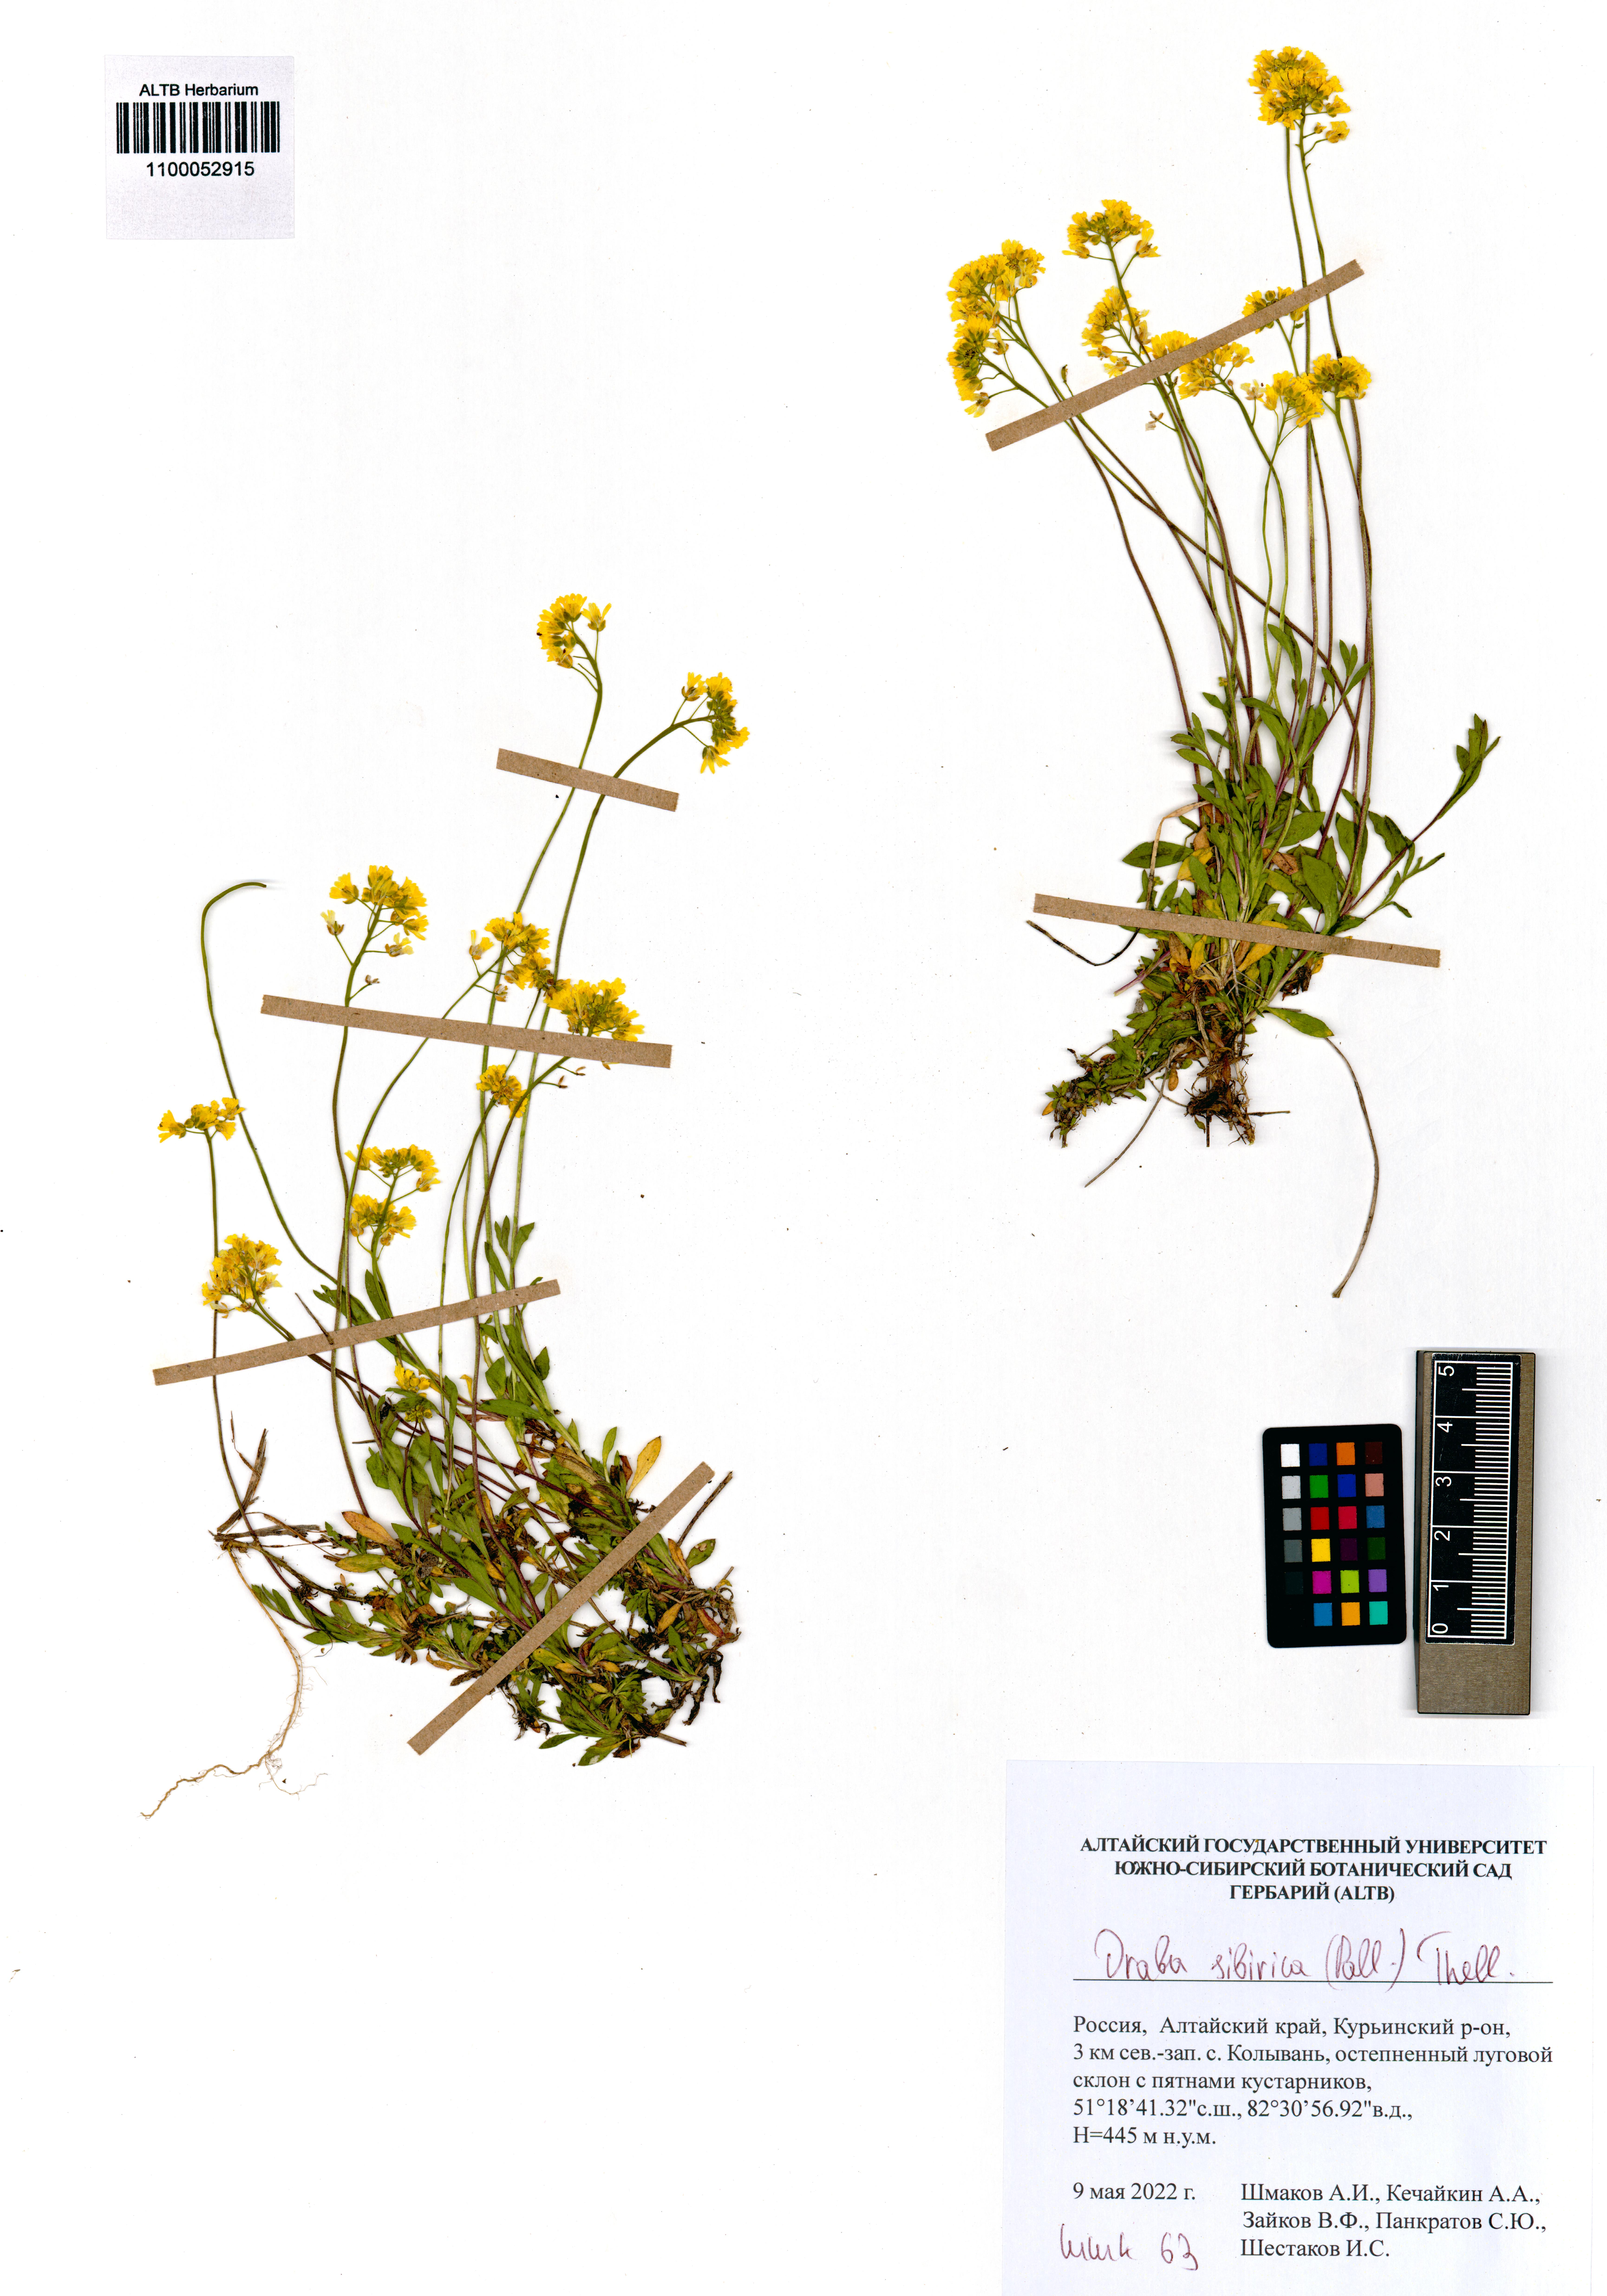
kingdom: Plantae
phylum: Tracheophyta
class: Magnoliopsida
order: Brassicales
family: Brassicaceae
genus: Draba
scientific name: Draba sibirica
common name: Siberian draba
